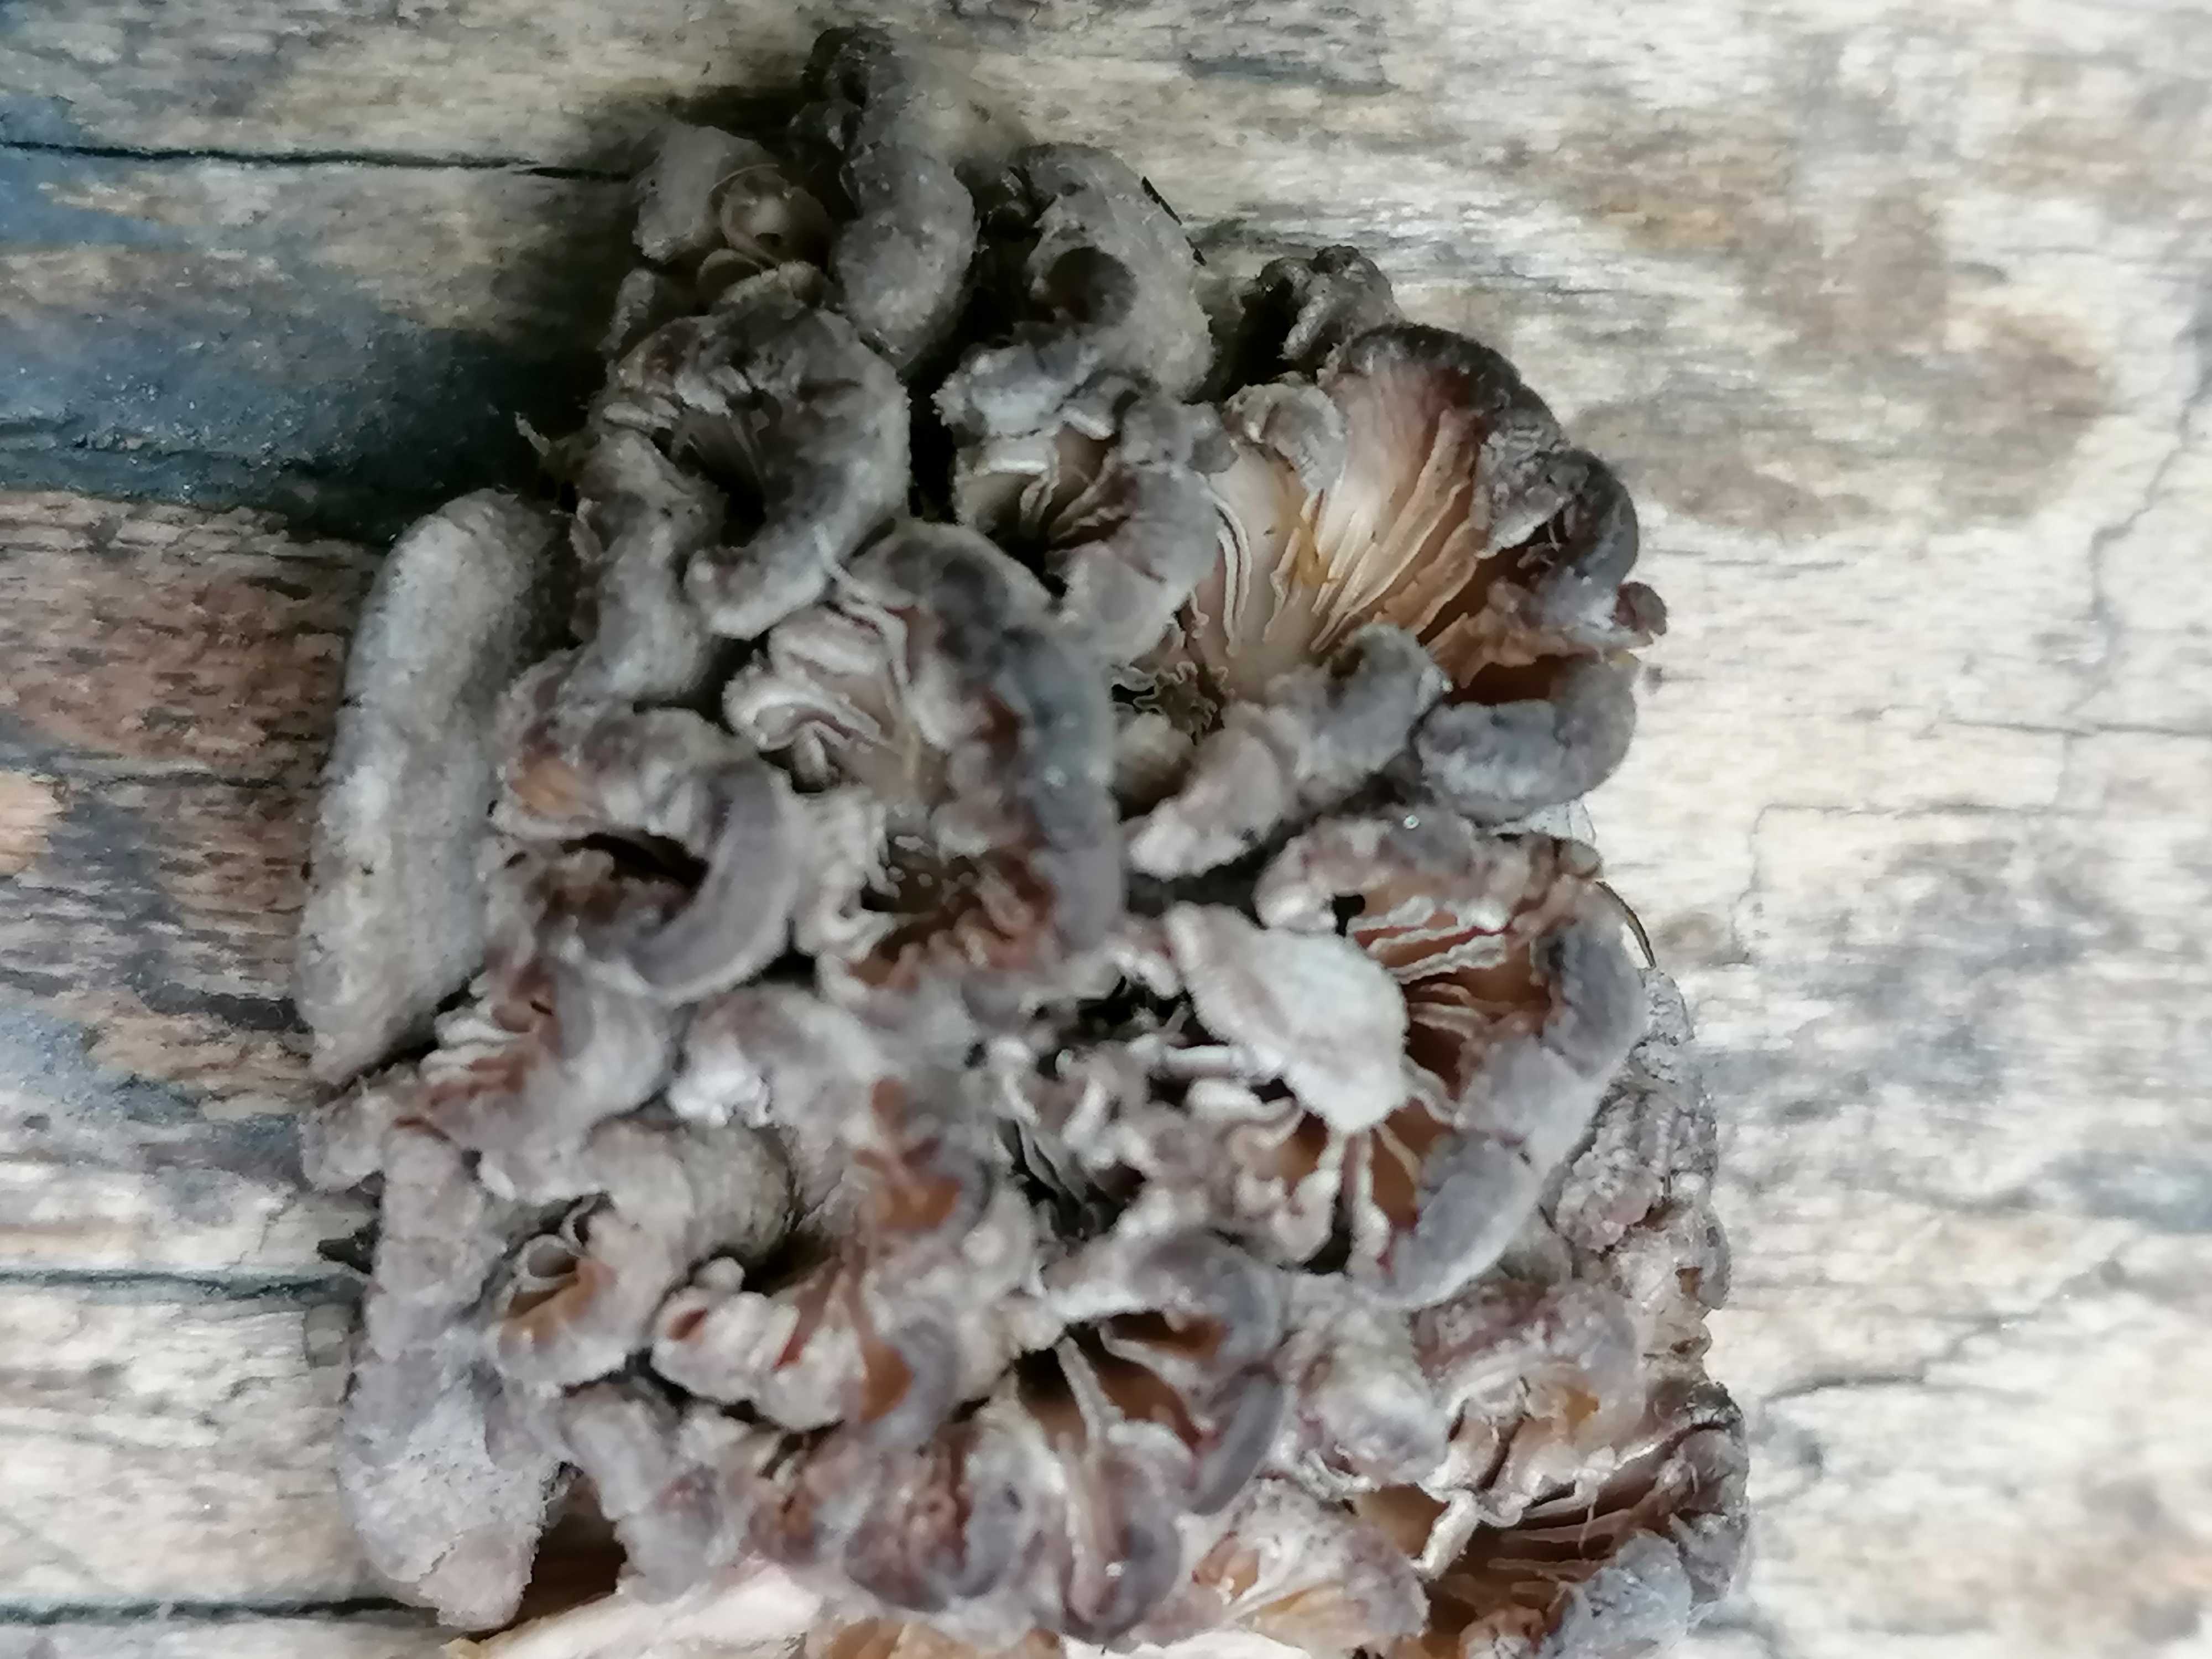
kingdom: Fungi
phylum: Basidiomycota
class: Agaricomycetes
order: Agaricales
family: Schizophyllaceae
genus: Schizophyllum
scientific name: Schizophyllum commune
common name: kløvblad
